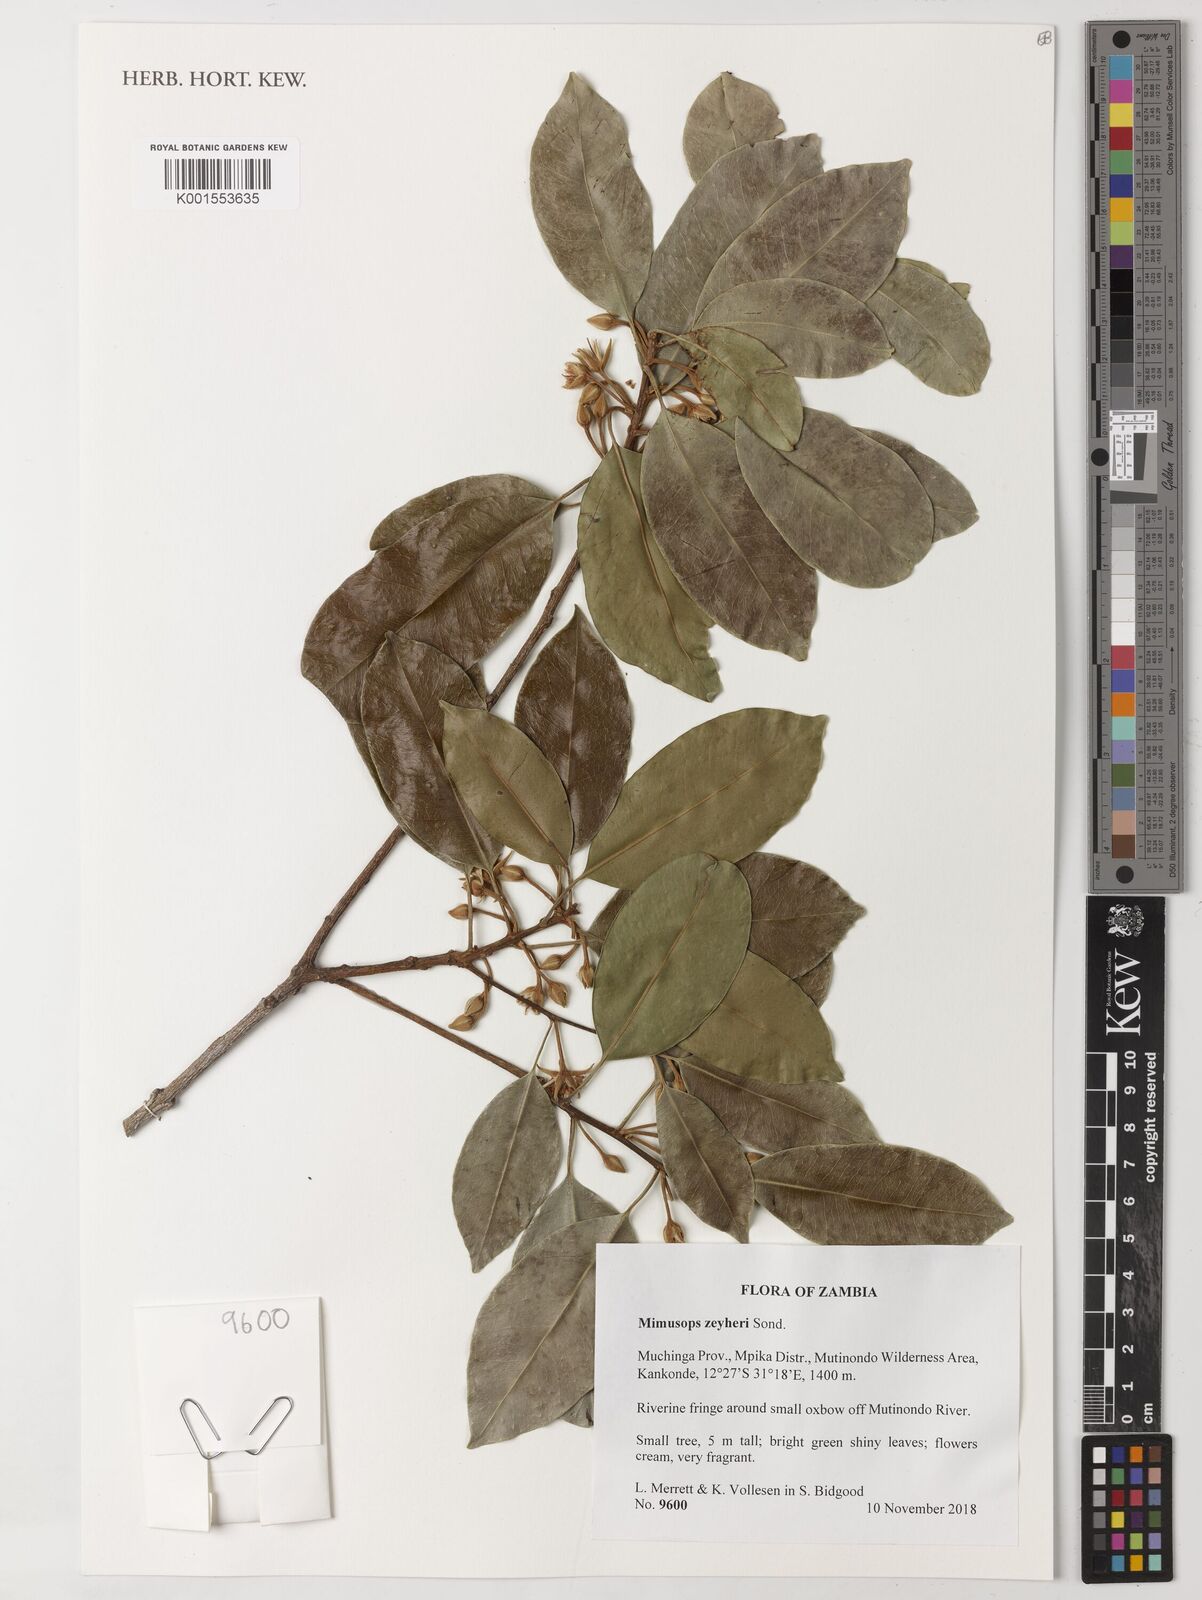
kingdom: Plantae
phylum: Tracheophyta
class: Magnoliopsida
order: Ericales
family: Sapotaceae
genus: Mimusops
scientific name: Mimusops zeyheri
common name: Transvaal red milkwood
